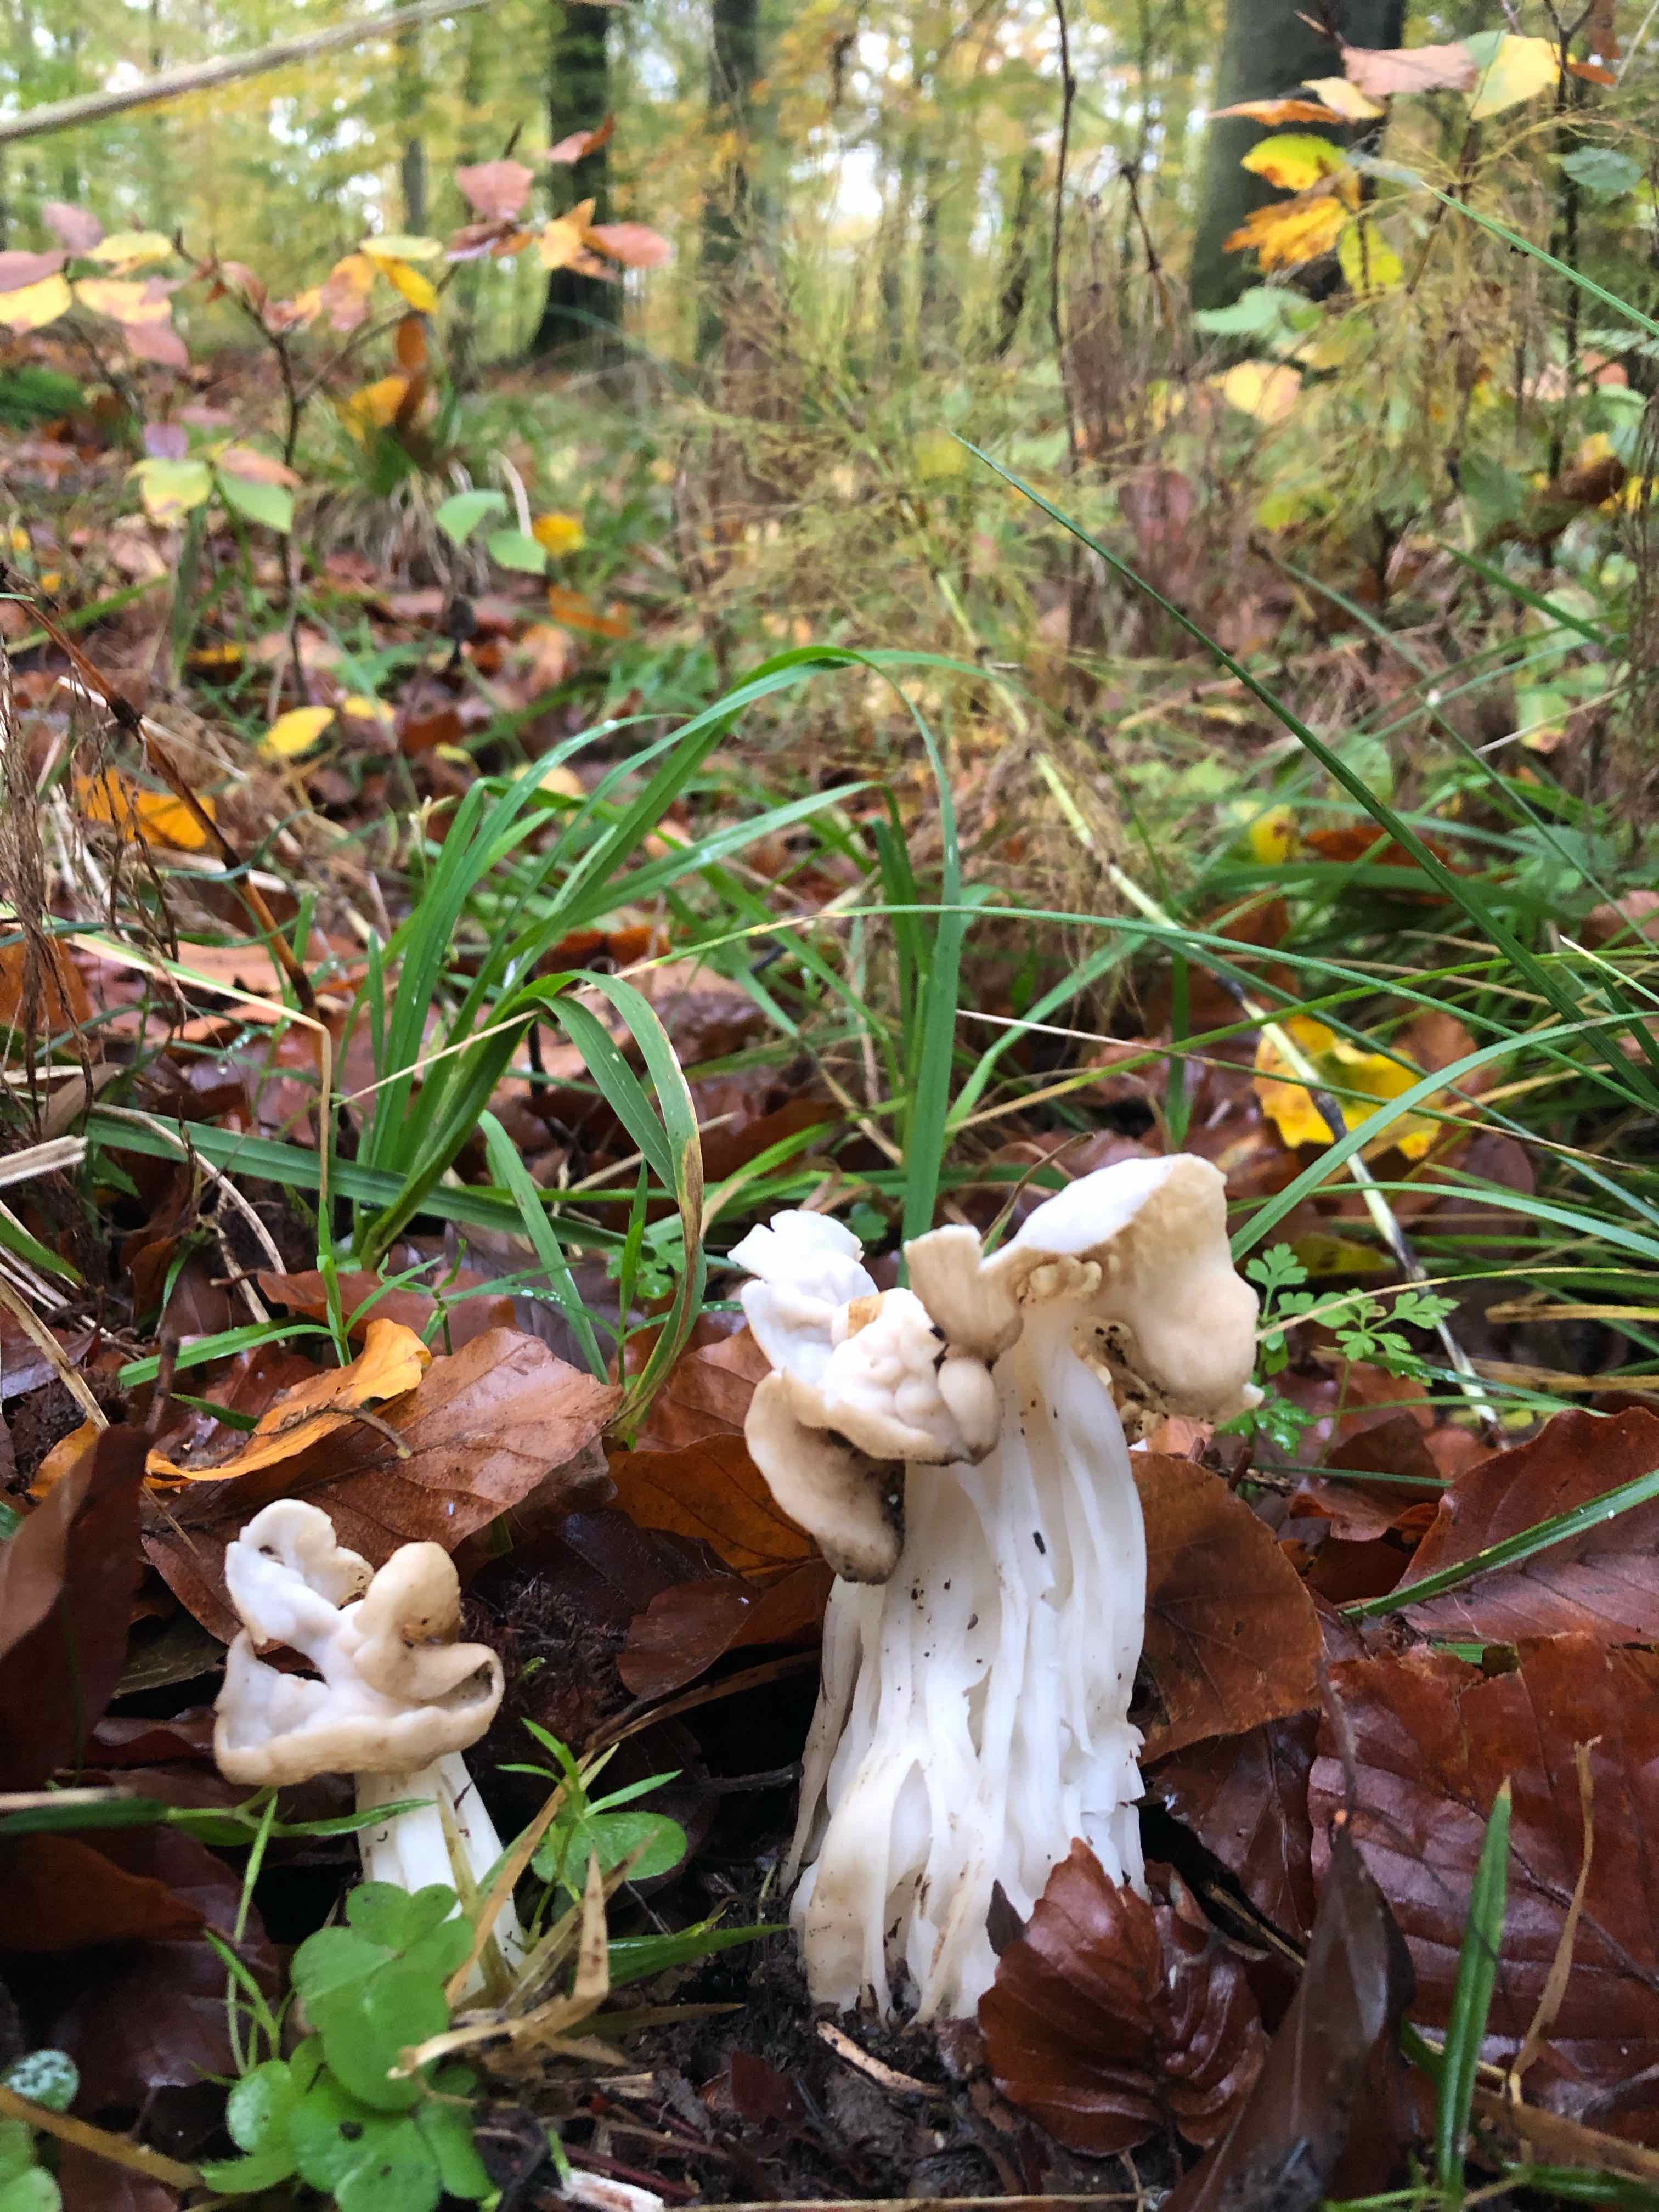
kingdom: Fungi
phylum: Ascomycota
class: Pezizomycetes
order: Pezizales
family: Helvellaceae
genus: Helvella
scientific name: Helvella crispa
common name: kruset foldhat
